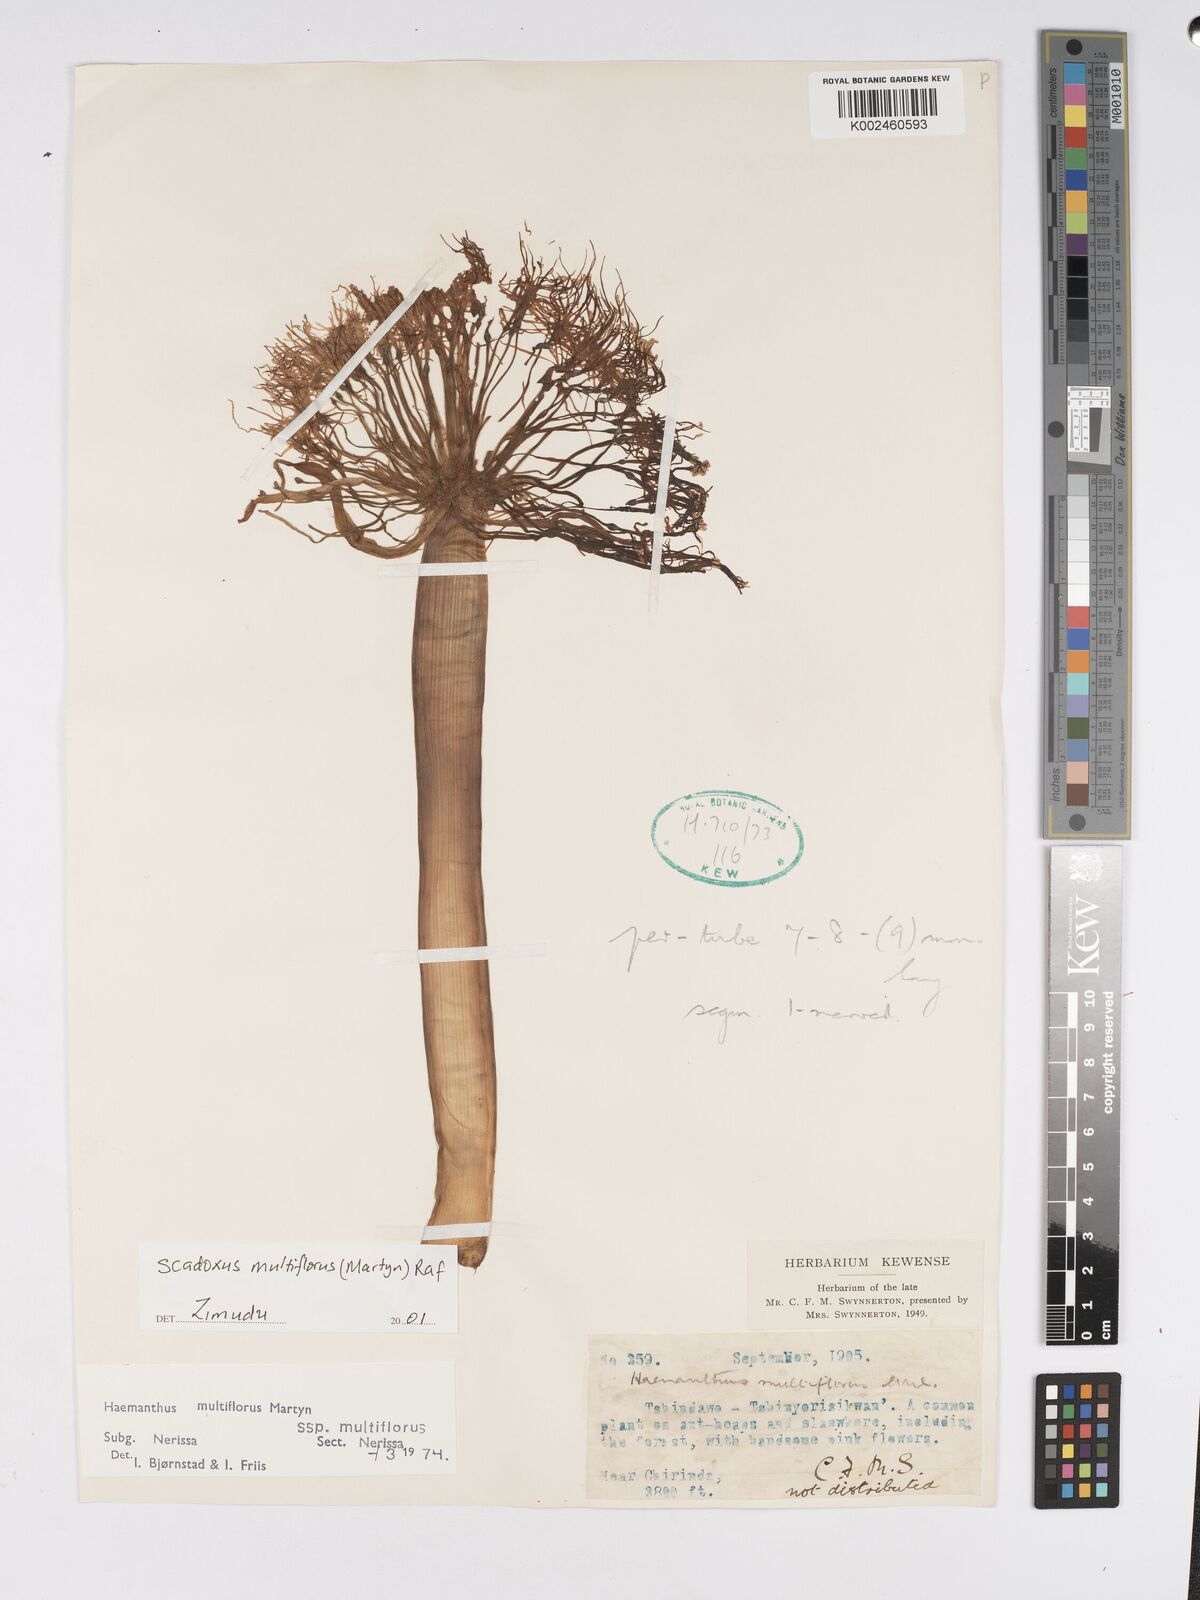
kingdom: Plantae
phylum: Tracheophyta
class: Liliopsida
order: Asparagales
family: Amaryllidaceae
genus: Scadoxus
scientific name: Scadoxus multiflorus
